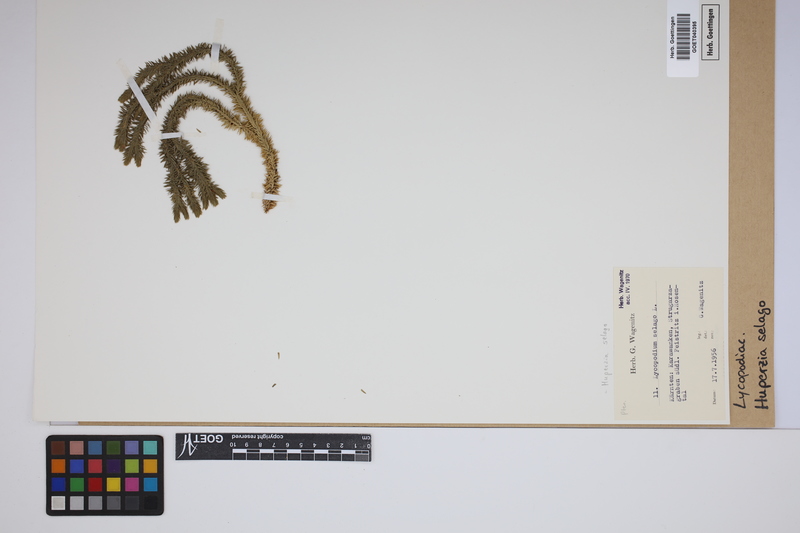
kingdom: Plantae
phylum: Tracheophyta
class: Lycopodiopsida
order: Lycopodiales
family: Lycopodiaceae
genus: Huperzia
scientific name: Huperzia selago
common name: Northern firmoss
